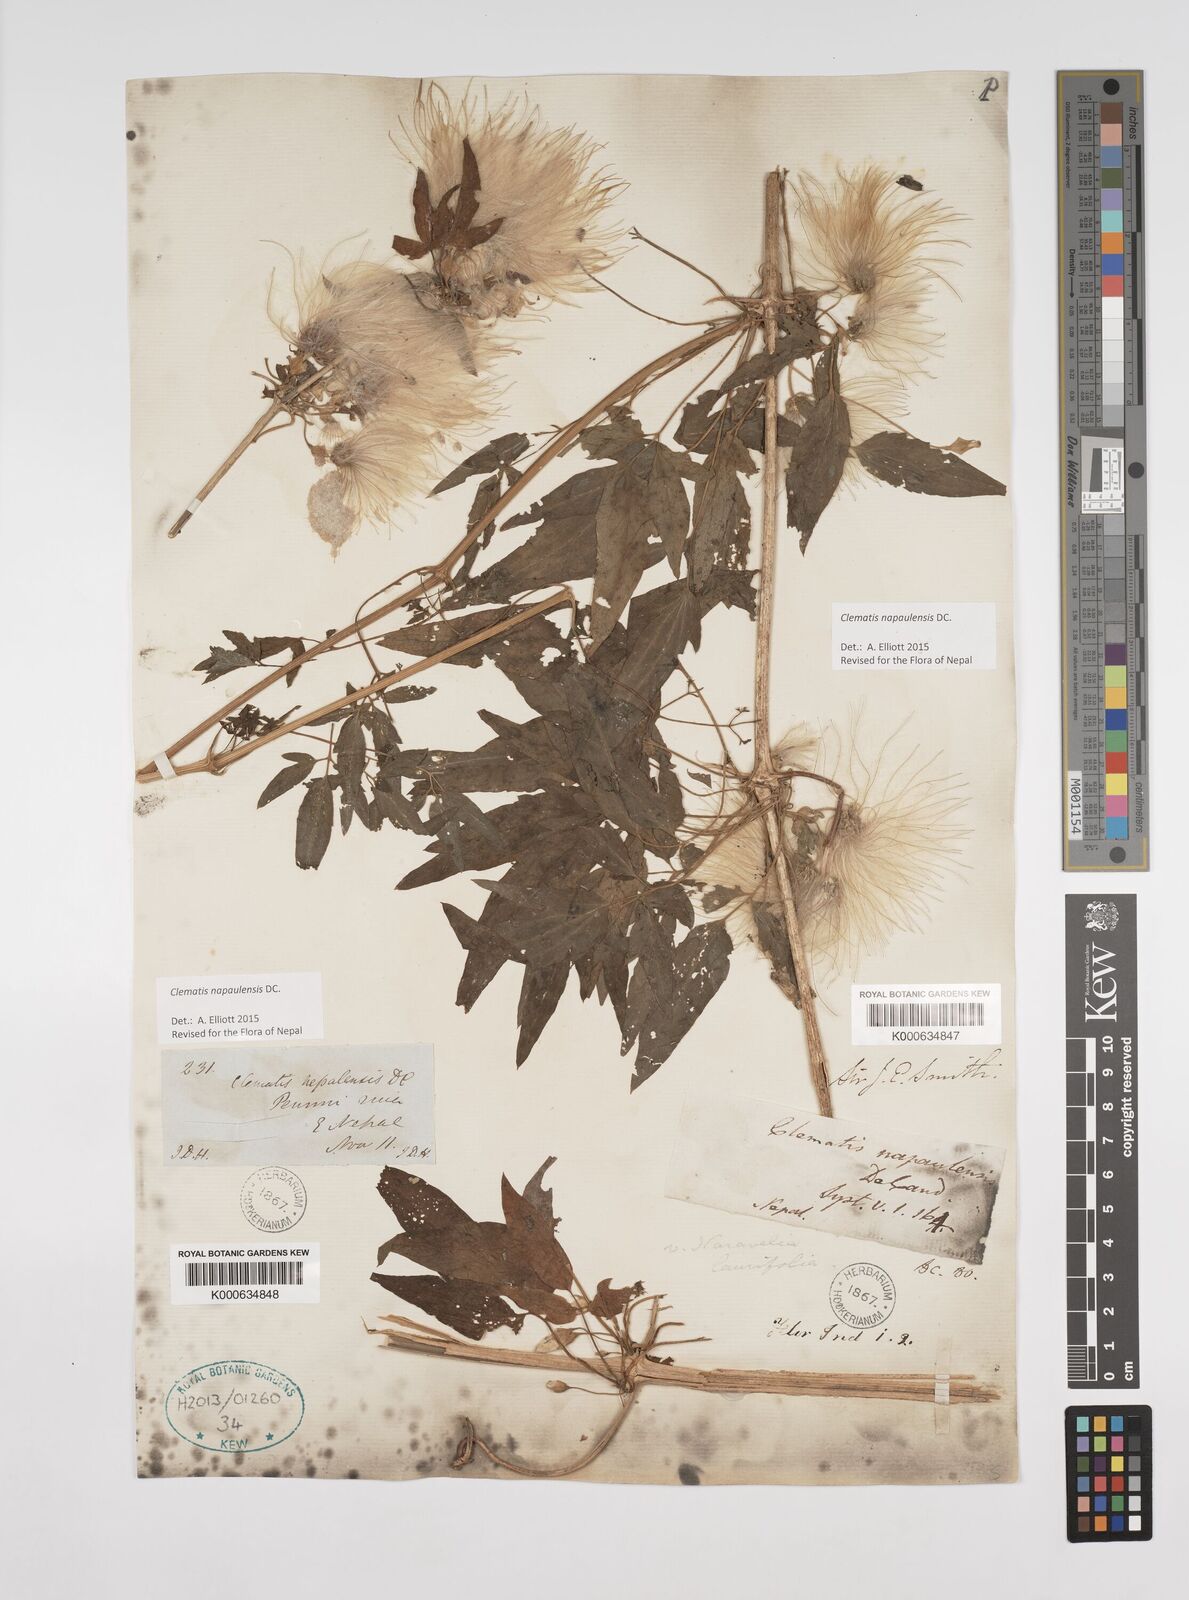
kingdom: Plantae
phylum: Tracheophyta
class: Magnoliopsida
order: Ranunculales
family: Ranunculaceae
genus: Clematis
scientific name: Clematis napaulensis
